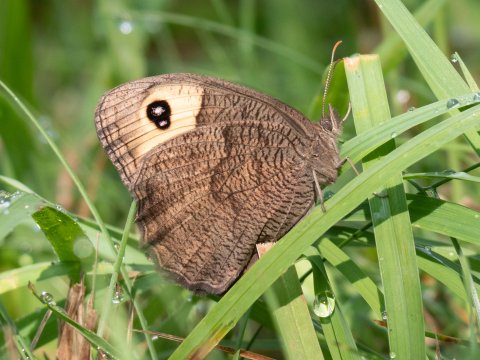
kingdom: Animalia
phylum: Arthropoda
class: Insecta
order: Lepidoptera
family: Nymphalidae
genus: Cercyonis
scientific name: Cercyonis pegala
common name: Common Wood-Nymph
